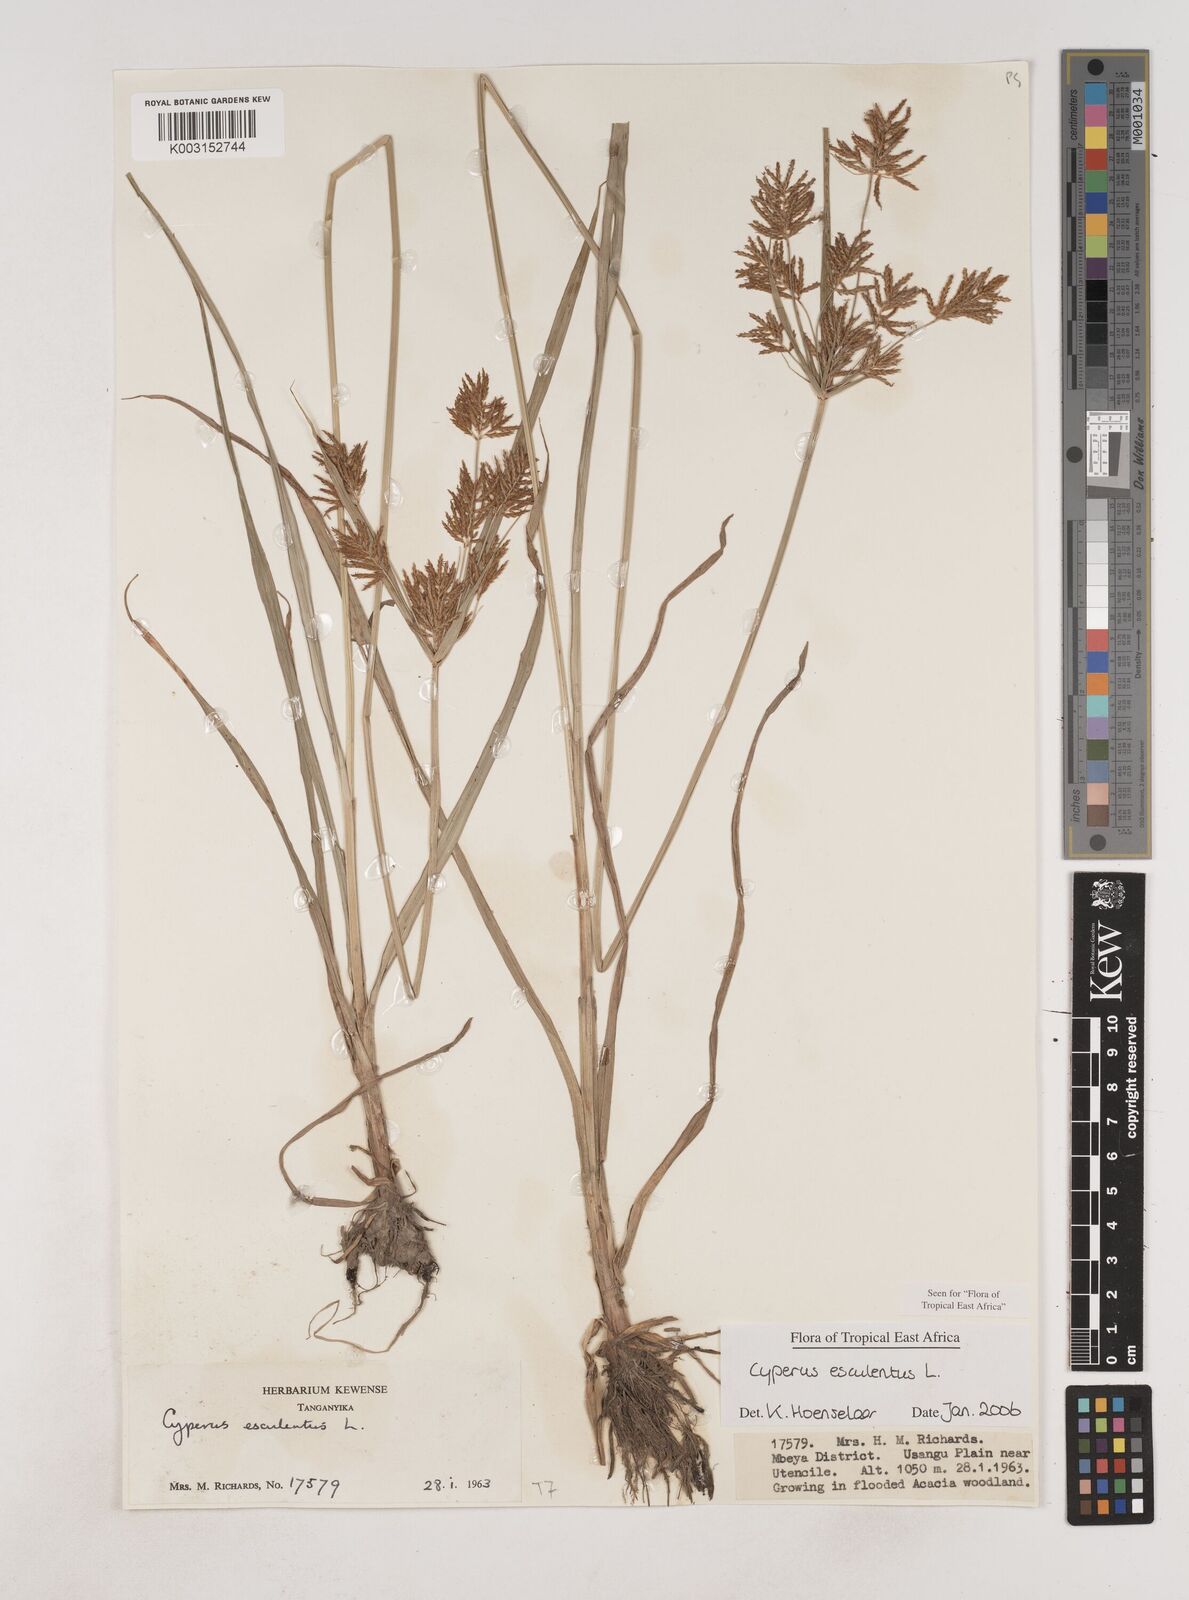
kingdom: Plantae
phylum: Tracheophyta
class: Liliopsida
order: Poales
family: Cyperaceae
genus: Cyperus
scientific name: Cyperus esculentus
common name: Yellow nutsedge
